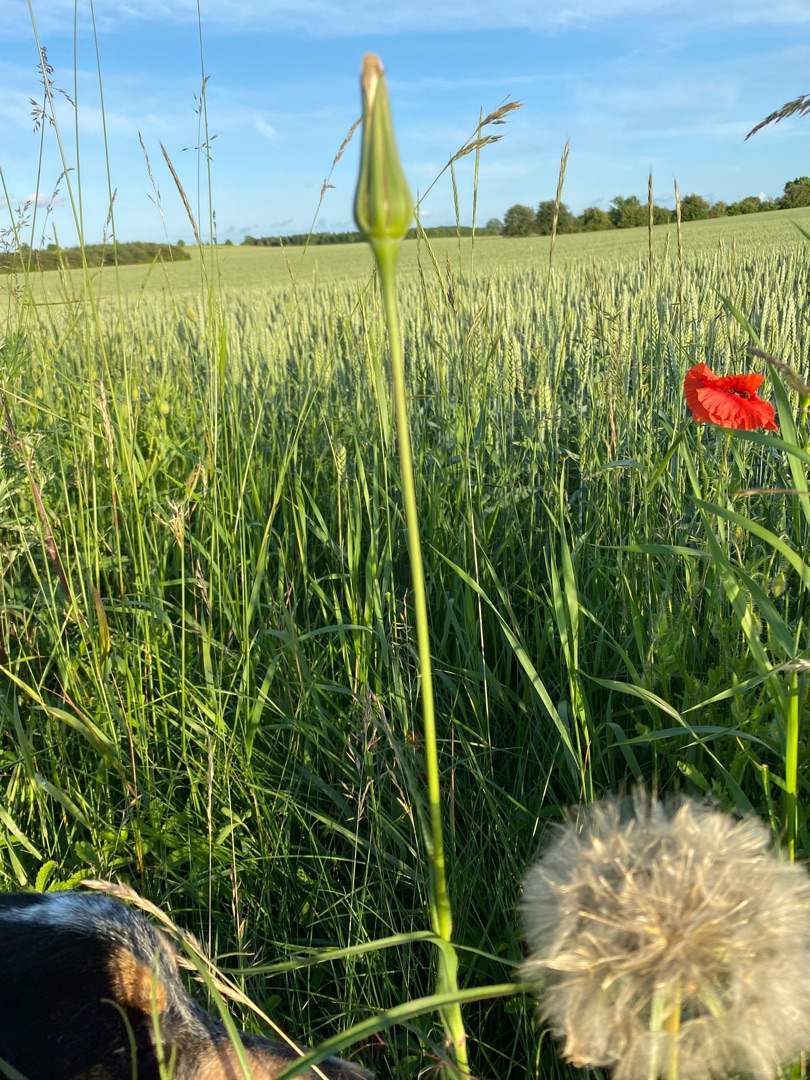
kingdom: Plantae
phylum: Tracheophyta
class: Magnoliopsida
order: Asterales
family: Asteraceae
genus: Tragopogon
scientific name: Tragopogon pratensis
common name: Gedeskæg
